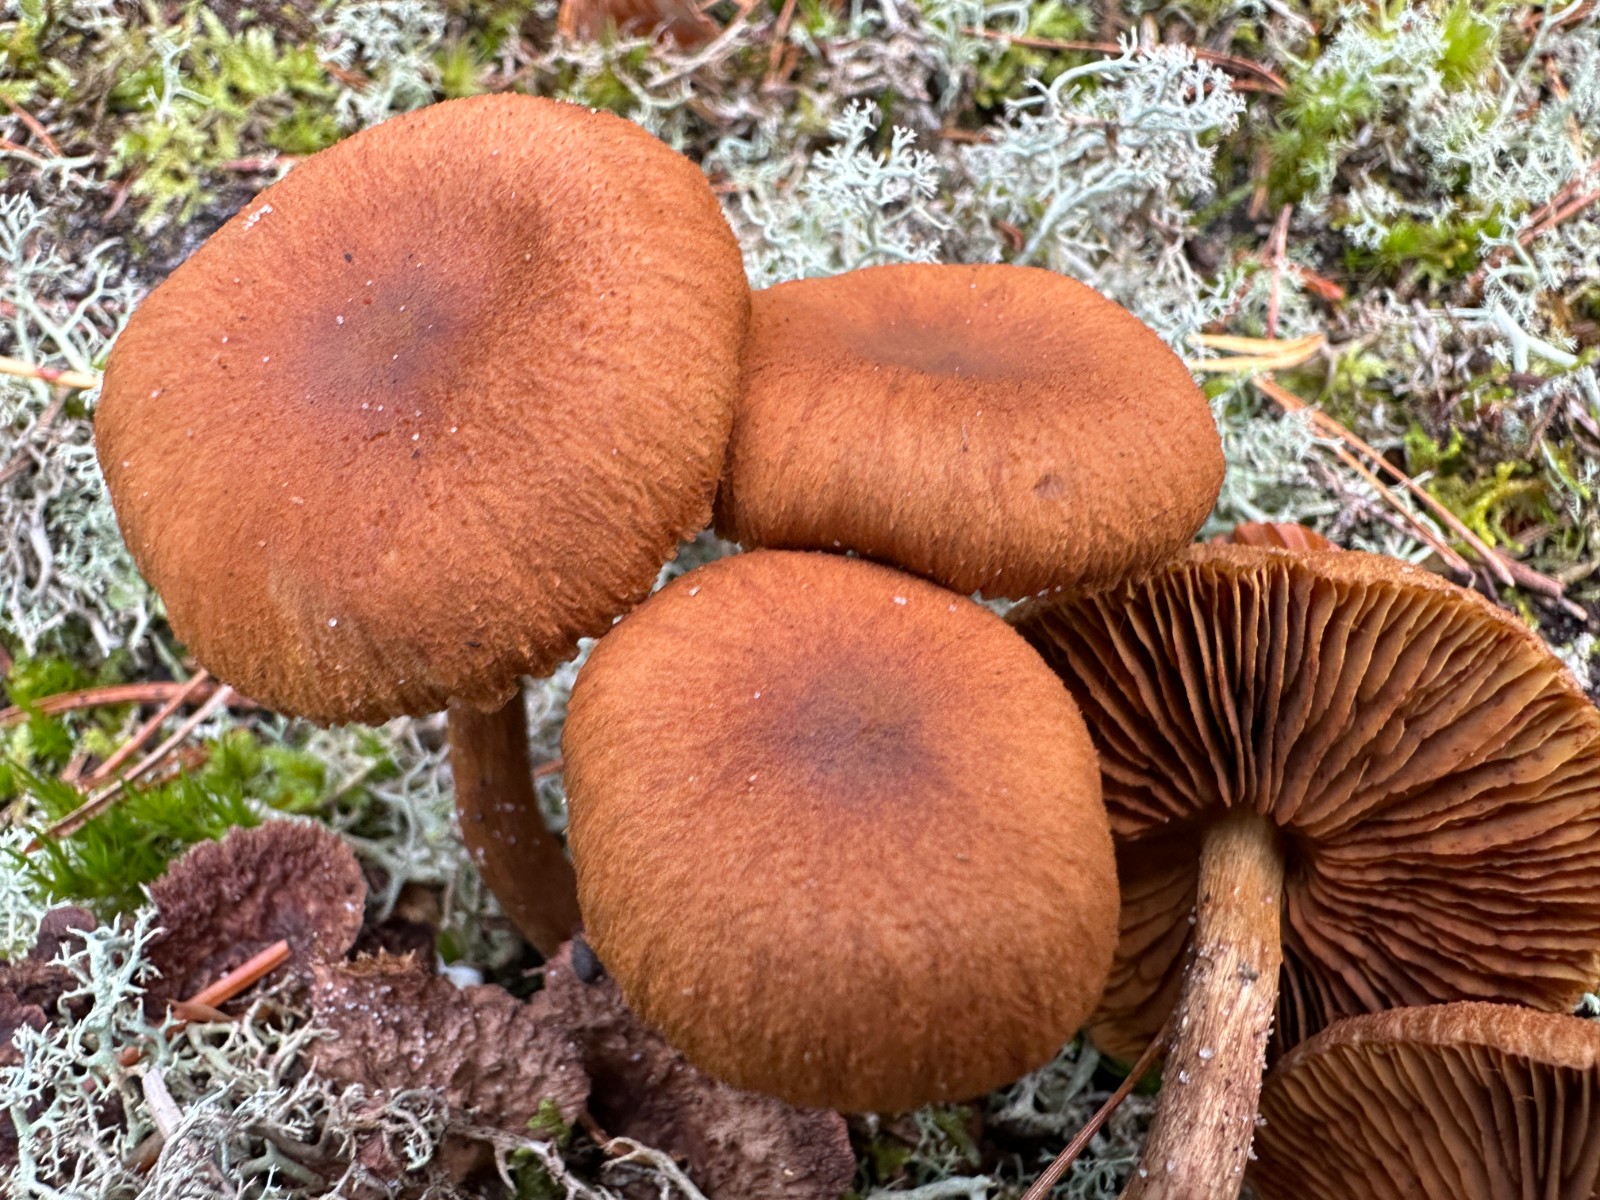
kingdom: Fungi
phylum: Basidiomycota
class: Agaricomycetes
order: Agaricales
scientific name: Agaricales
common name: champignonordenen
